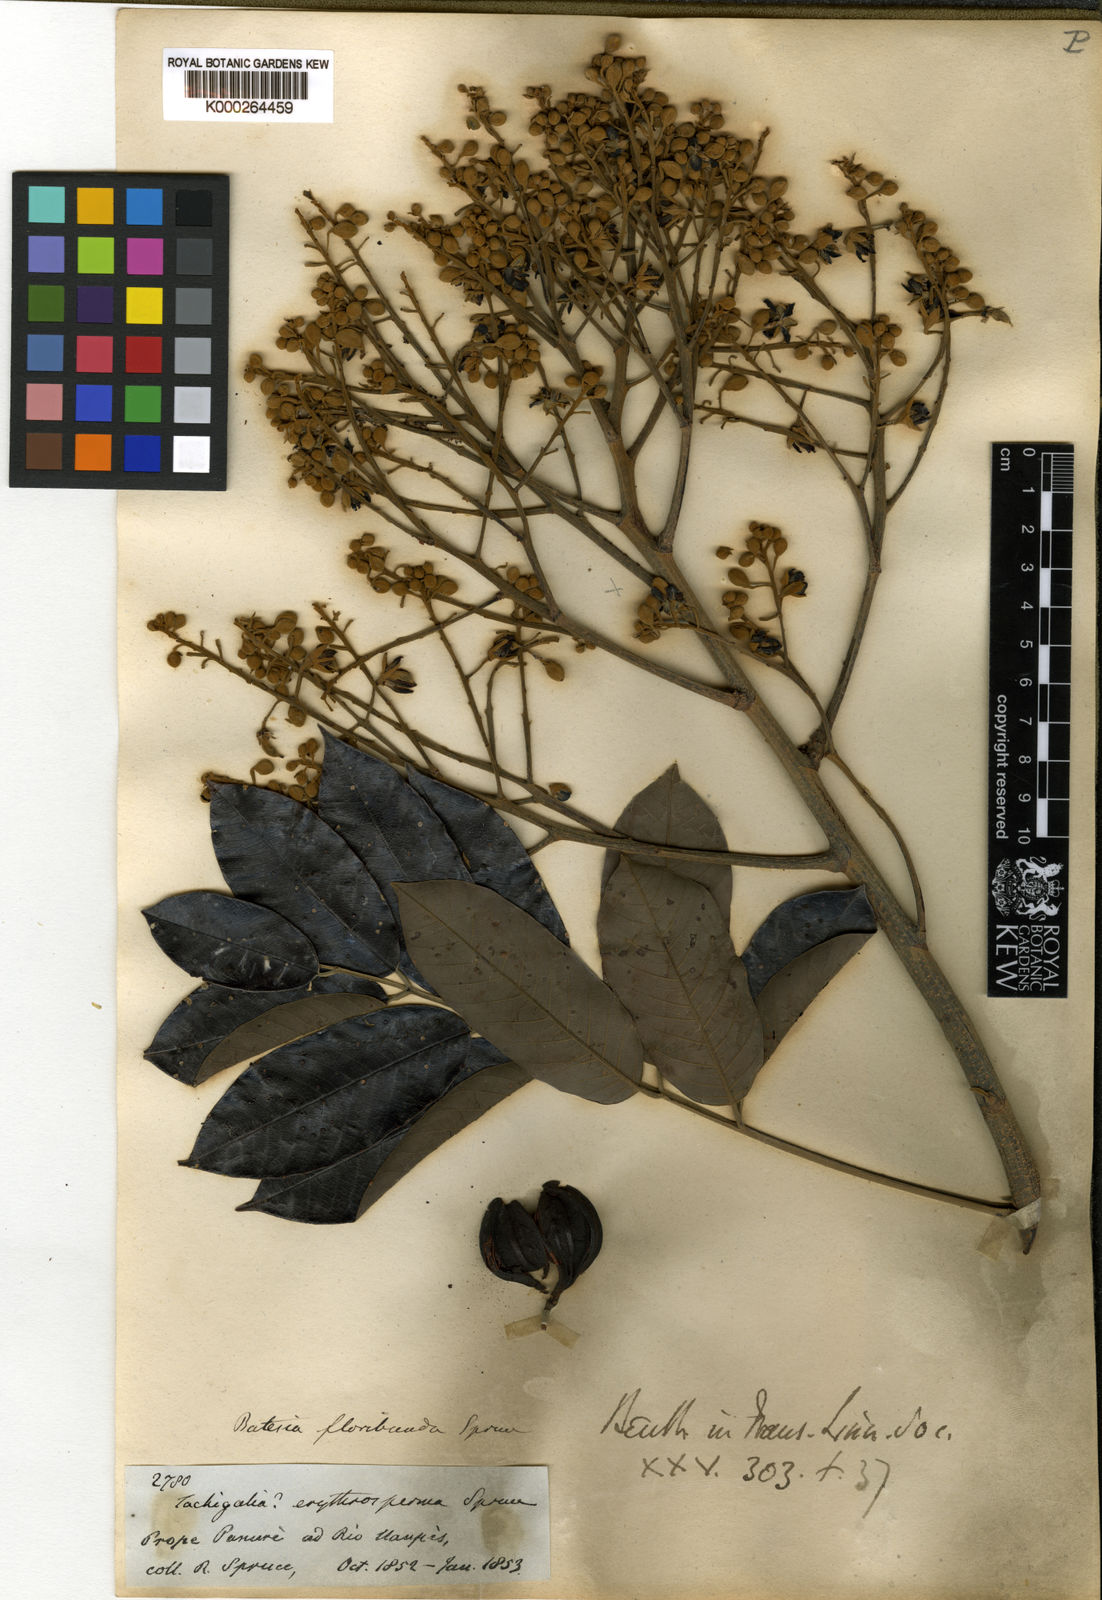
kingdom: Plantae
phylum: Tracheophyta
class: Magnoliopsida
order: Fabales
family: Fabaceae
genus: Batesia
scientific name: Batesia floribunda
